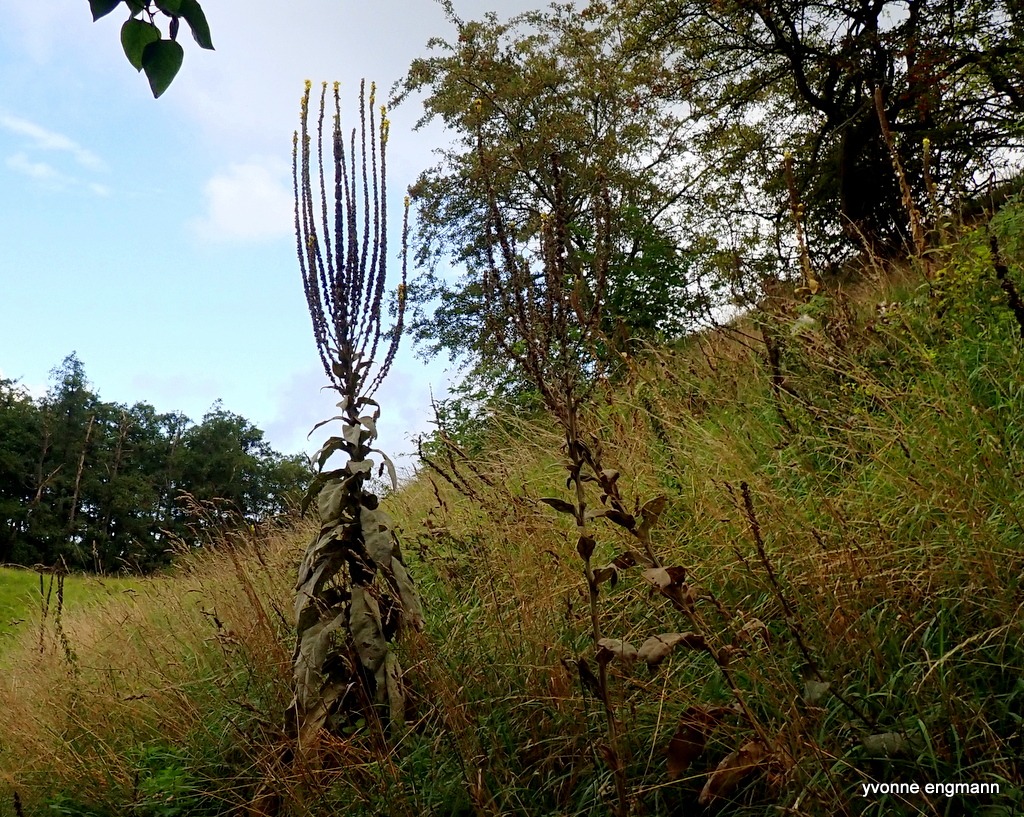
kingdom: Plantae
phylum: Tracheophyta
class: Magnoliopsida
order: Lamiales
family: Scrophulariaceae
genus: Verbascum
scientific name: Verbascum densiflorum
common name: Uldbladet kongelys
